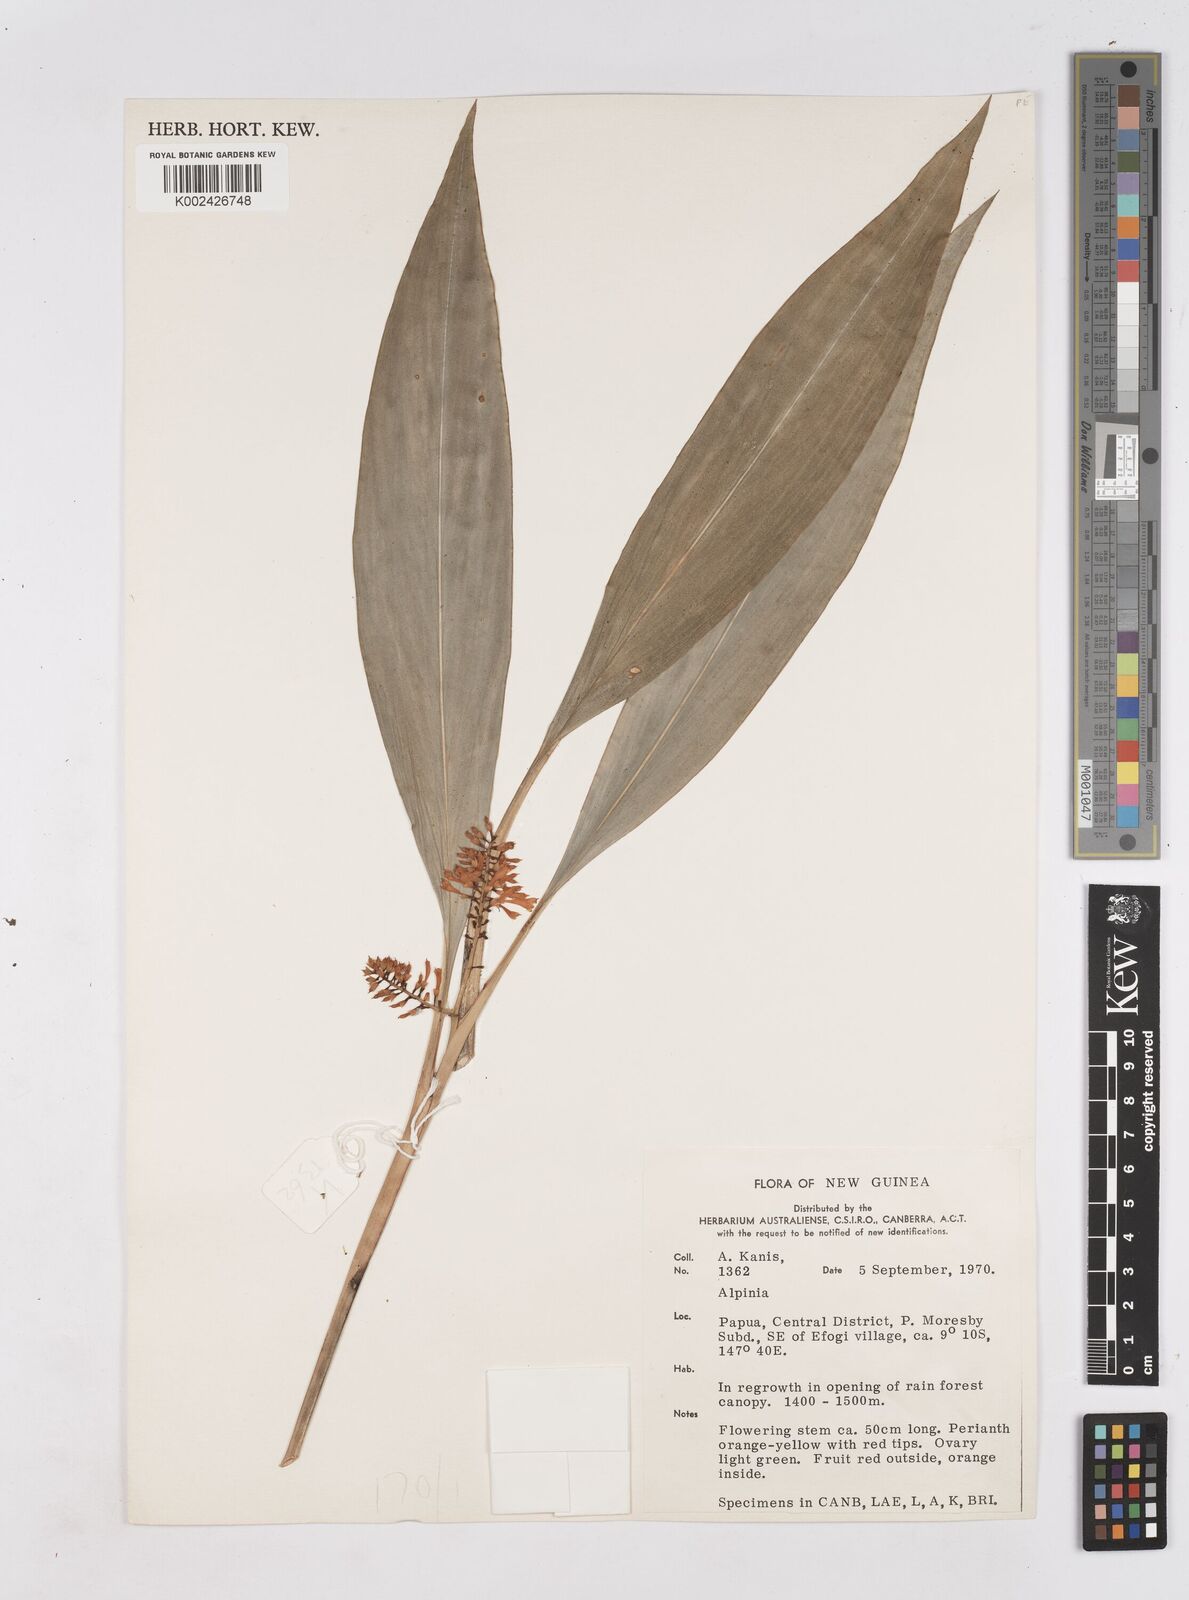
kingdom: Plantae
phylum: Tracheophyta
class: Liliopsida
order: Zingiberales
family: Zingiberaceae
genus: Riedelia
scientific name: Riedelia
